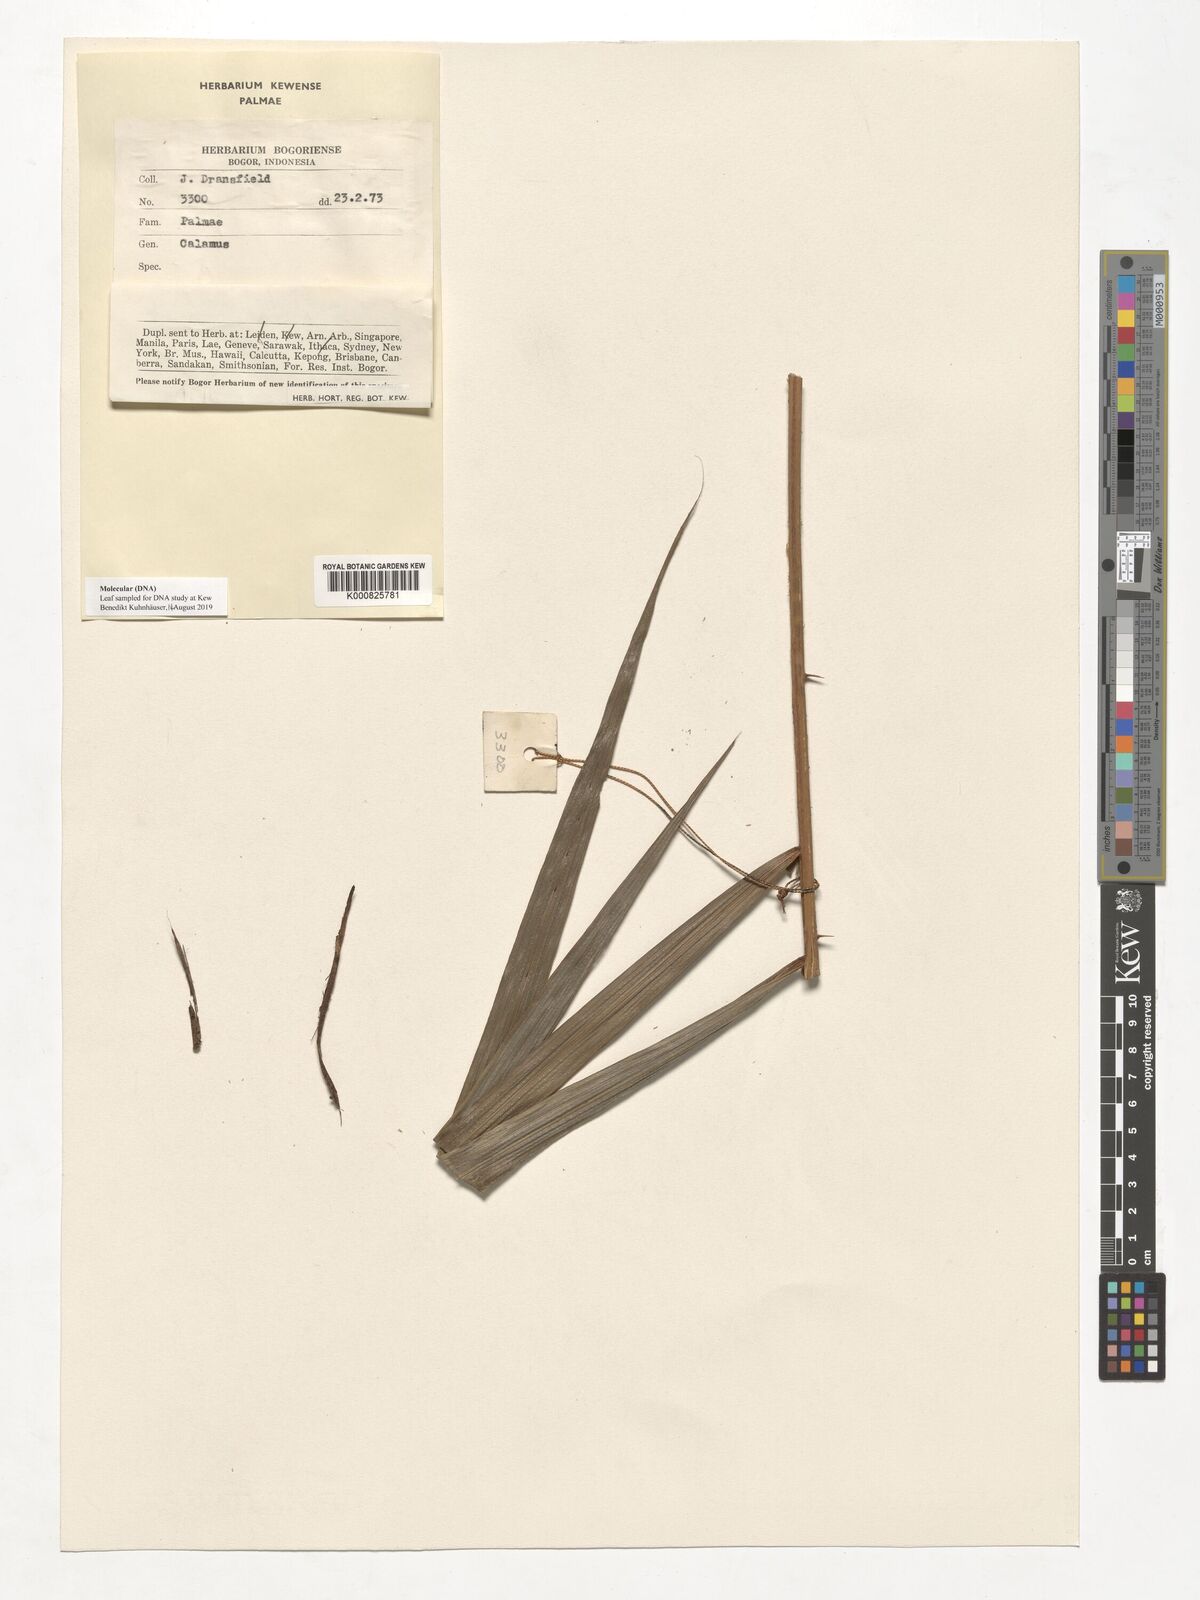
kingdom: Plantae
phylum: Tracheophyta
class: Liliopsida
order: Arecales
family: Arecaceae
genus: Calamus
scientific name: Calamus
